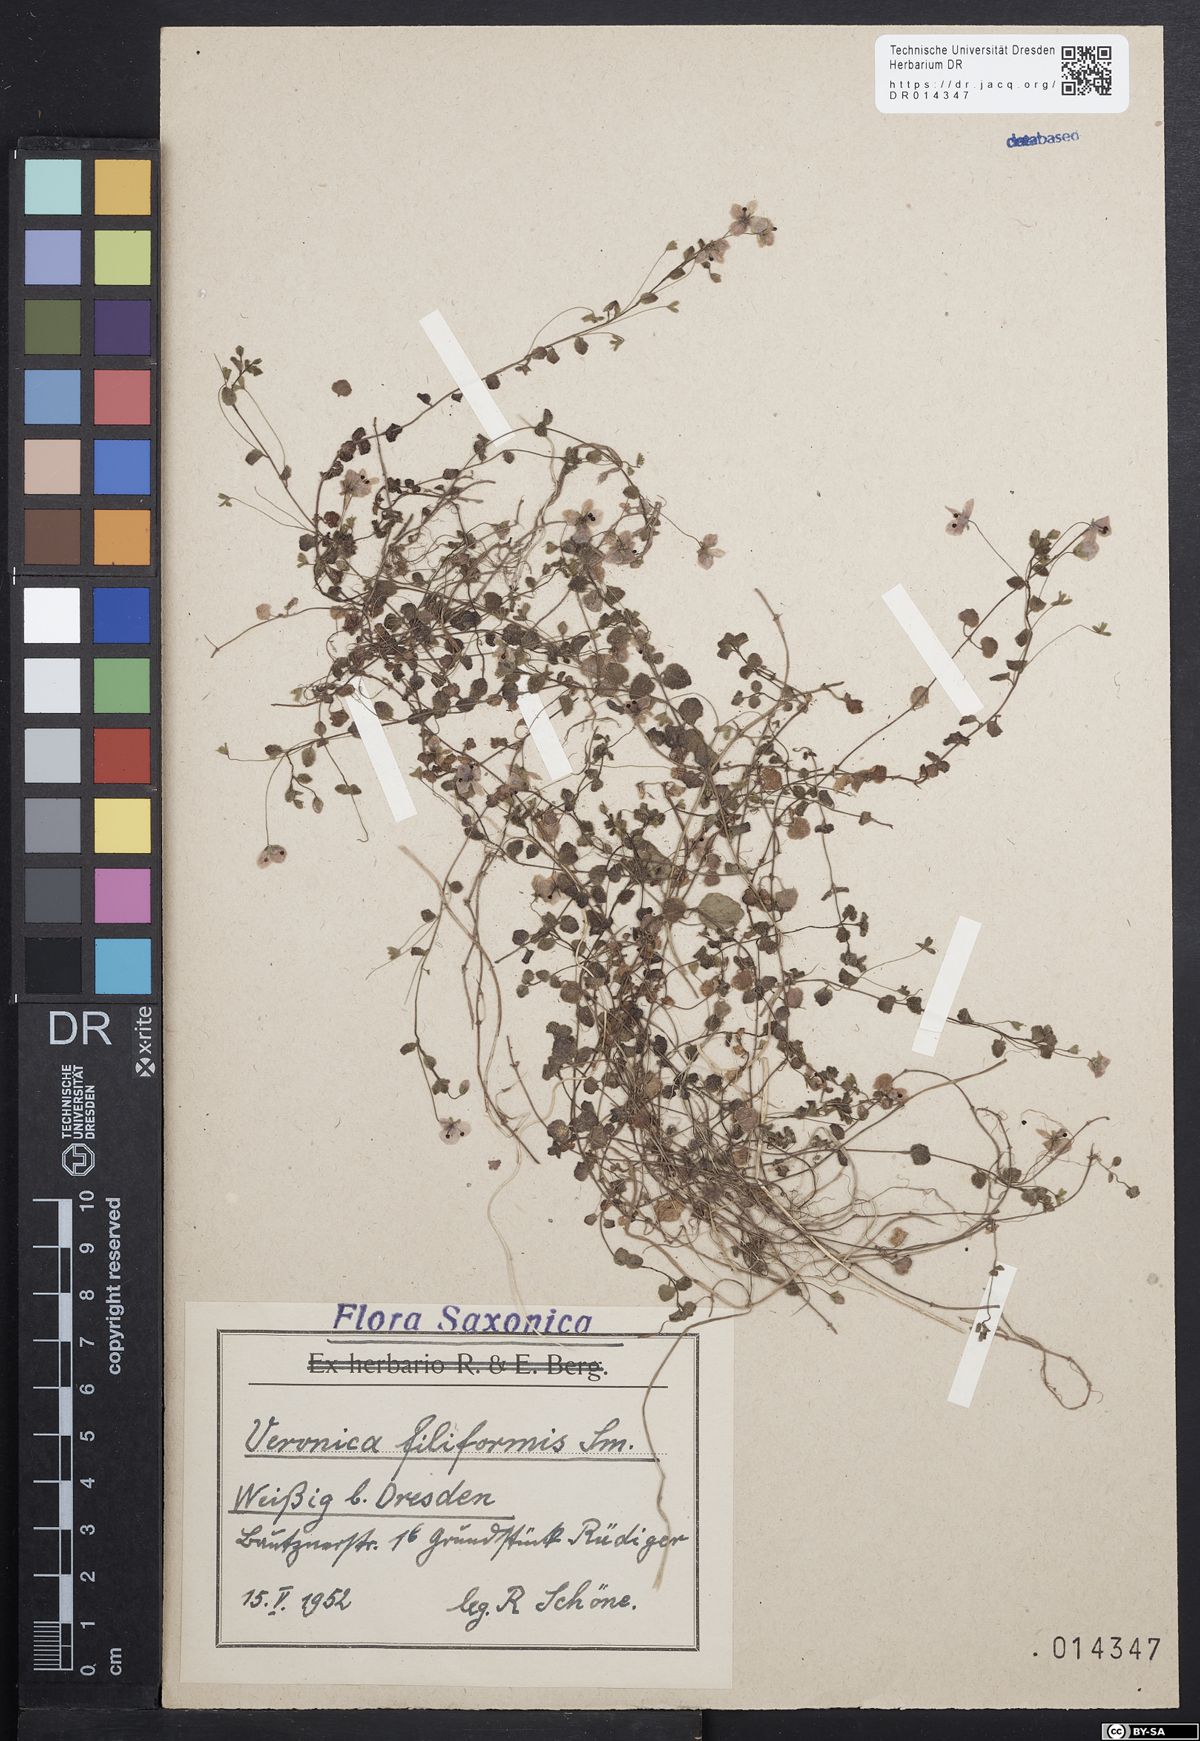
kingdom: Plantae
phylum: Tracheophyta
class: Magnoliopsida
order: Lamiales
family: Plantaginaceae
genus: Veronica
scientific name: Veronica filiformis
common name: Slender speedwell
